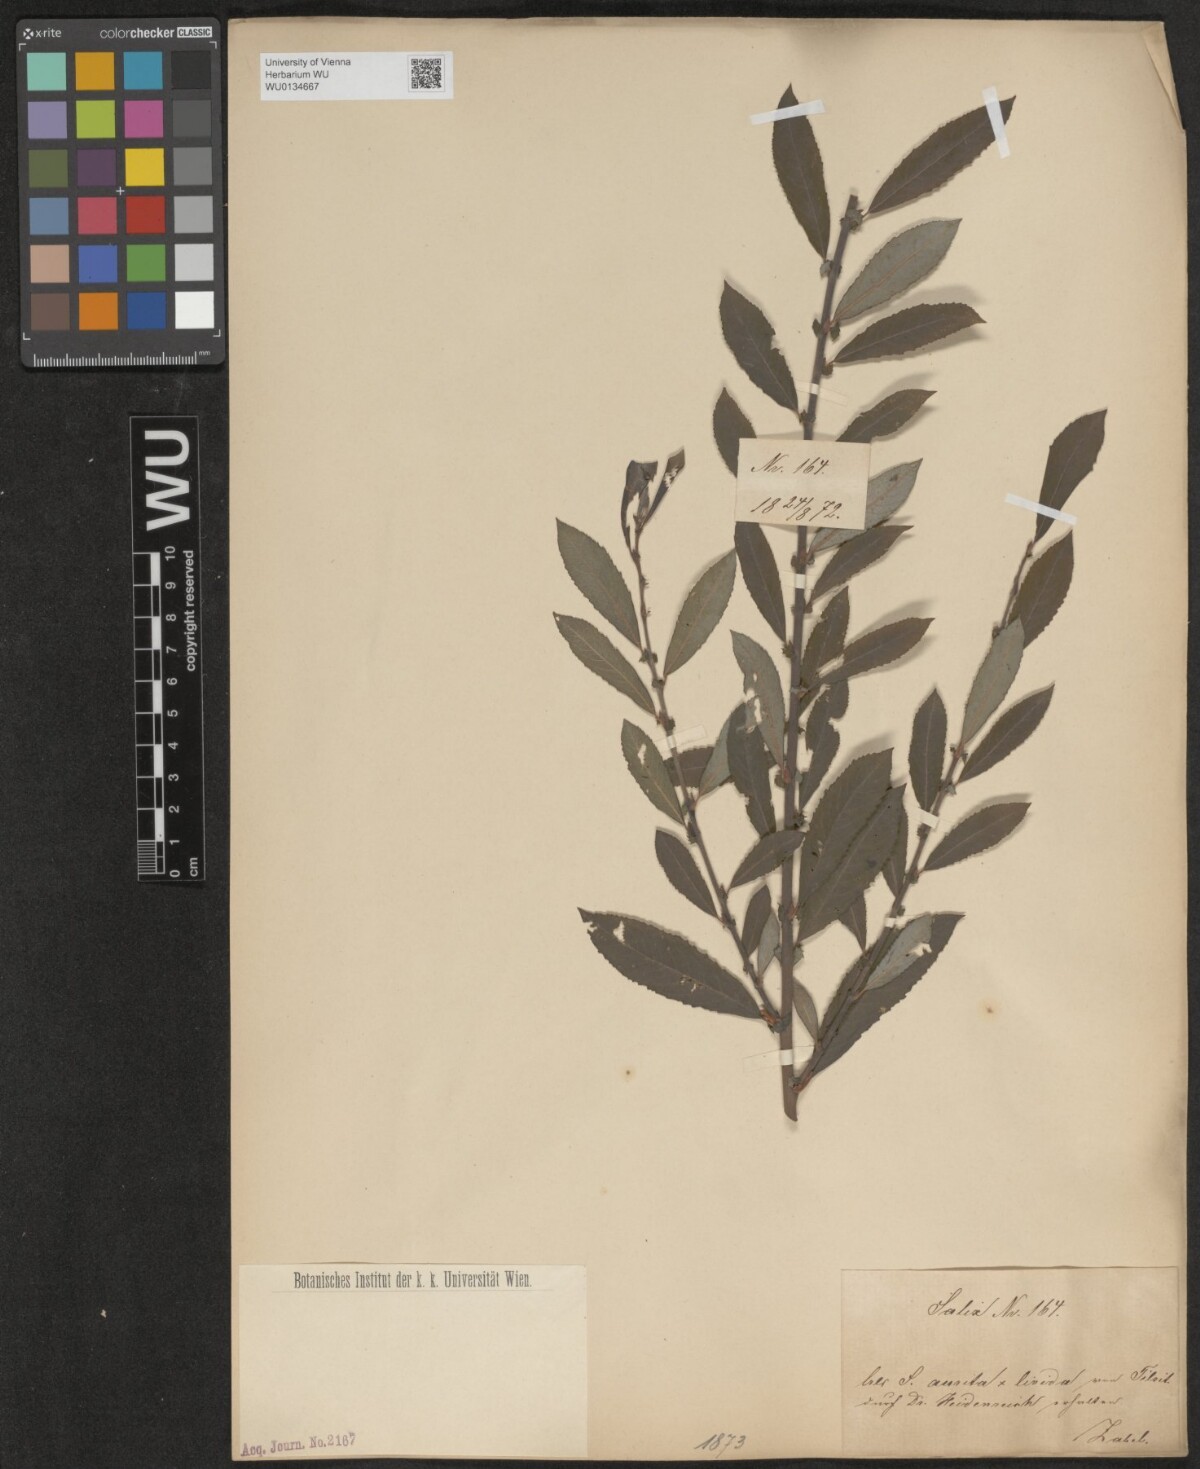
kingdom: Plantae
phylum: Tracheophyta
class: Magnoliopsida
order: Malpighiales
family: Salicaceae
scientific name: Salicaceae
